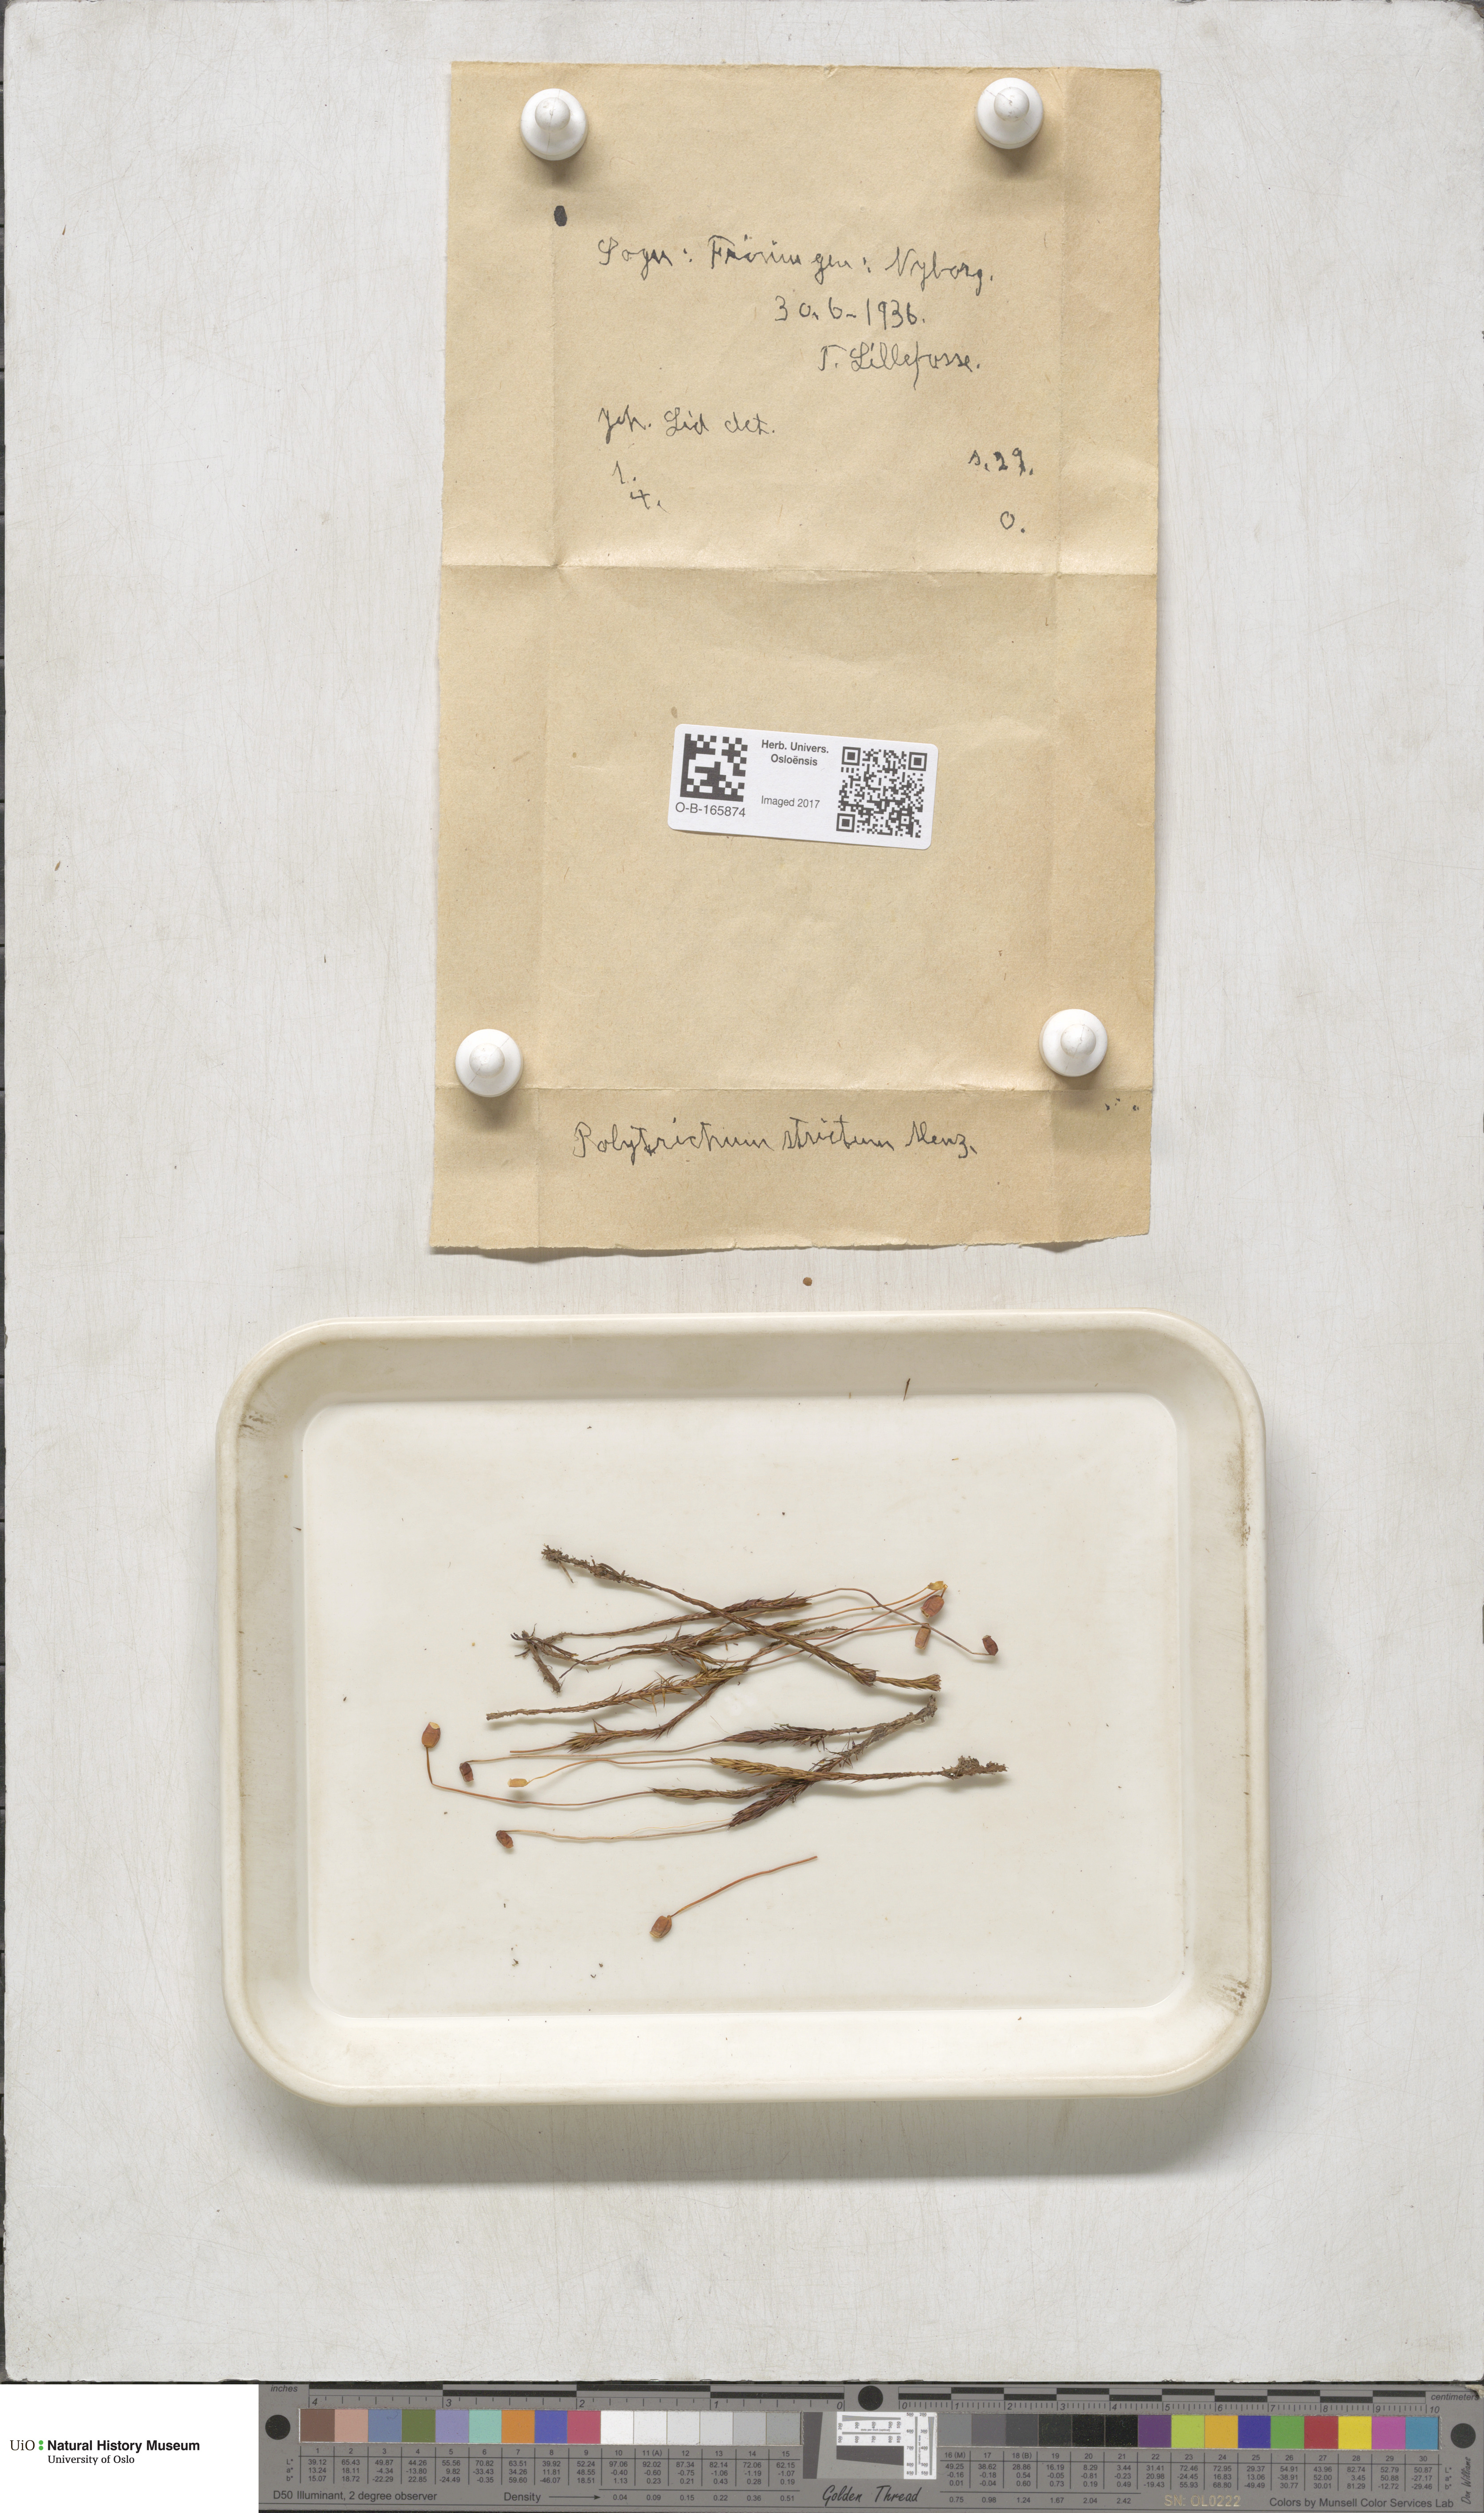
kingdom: Plantae
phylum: Bryophyta
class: Polytrichopsida
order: Polytrichales
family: Polytrichaceae
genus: Polytrichum
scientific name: Polytrichum strictum
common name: Bog haircap moss
